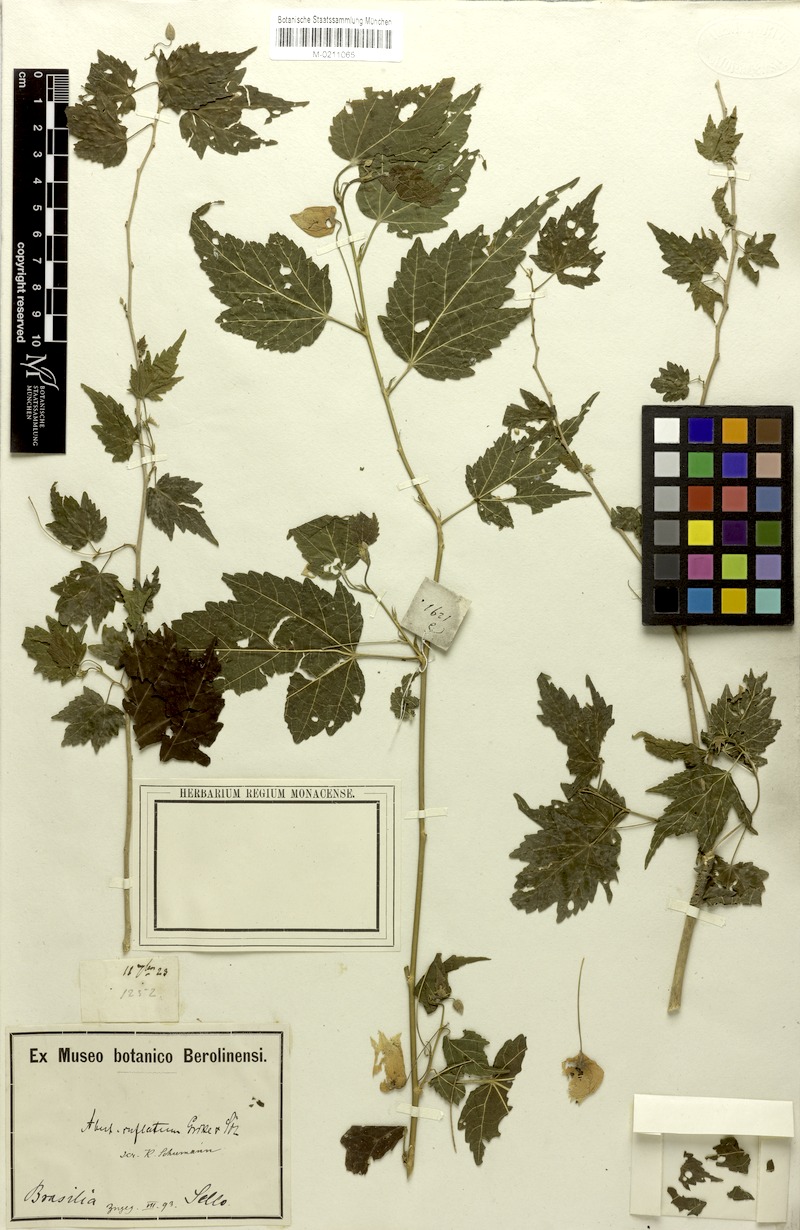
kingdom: Plantae
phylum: Tracheophyta
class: Magnoliopsida
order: Malvales
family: Malvaceae
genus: Callianthe
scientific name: Callianthe megapotamica
